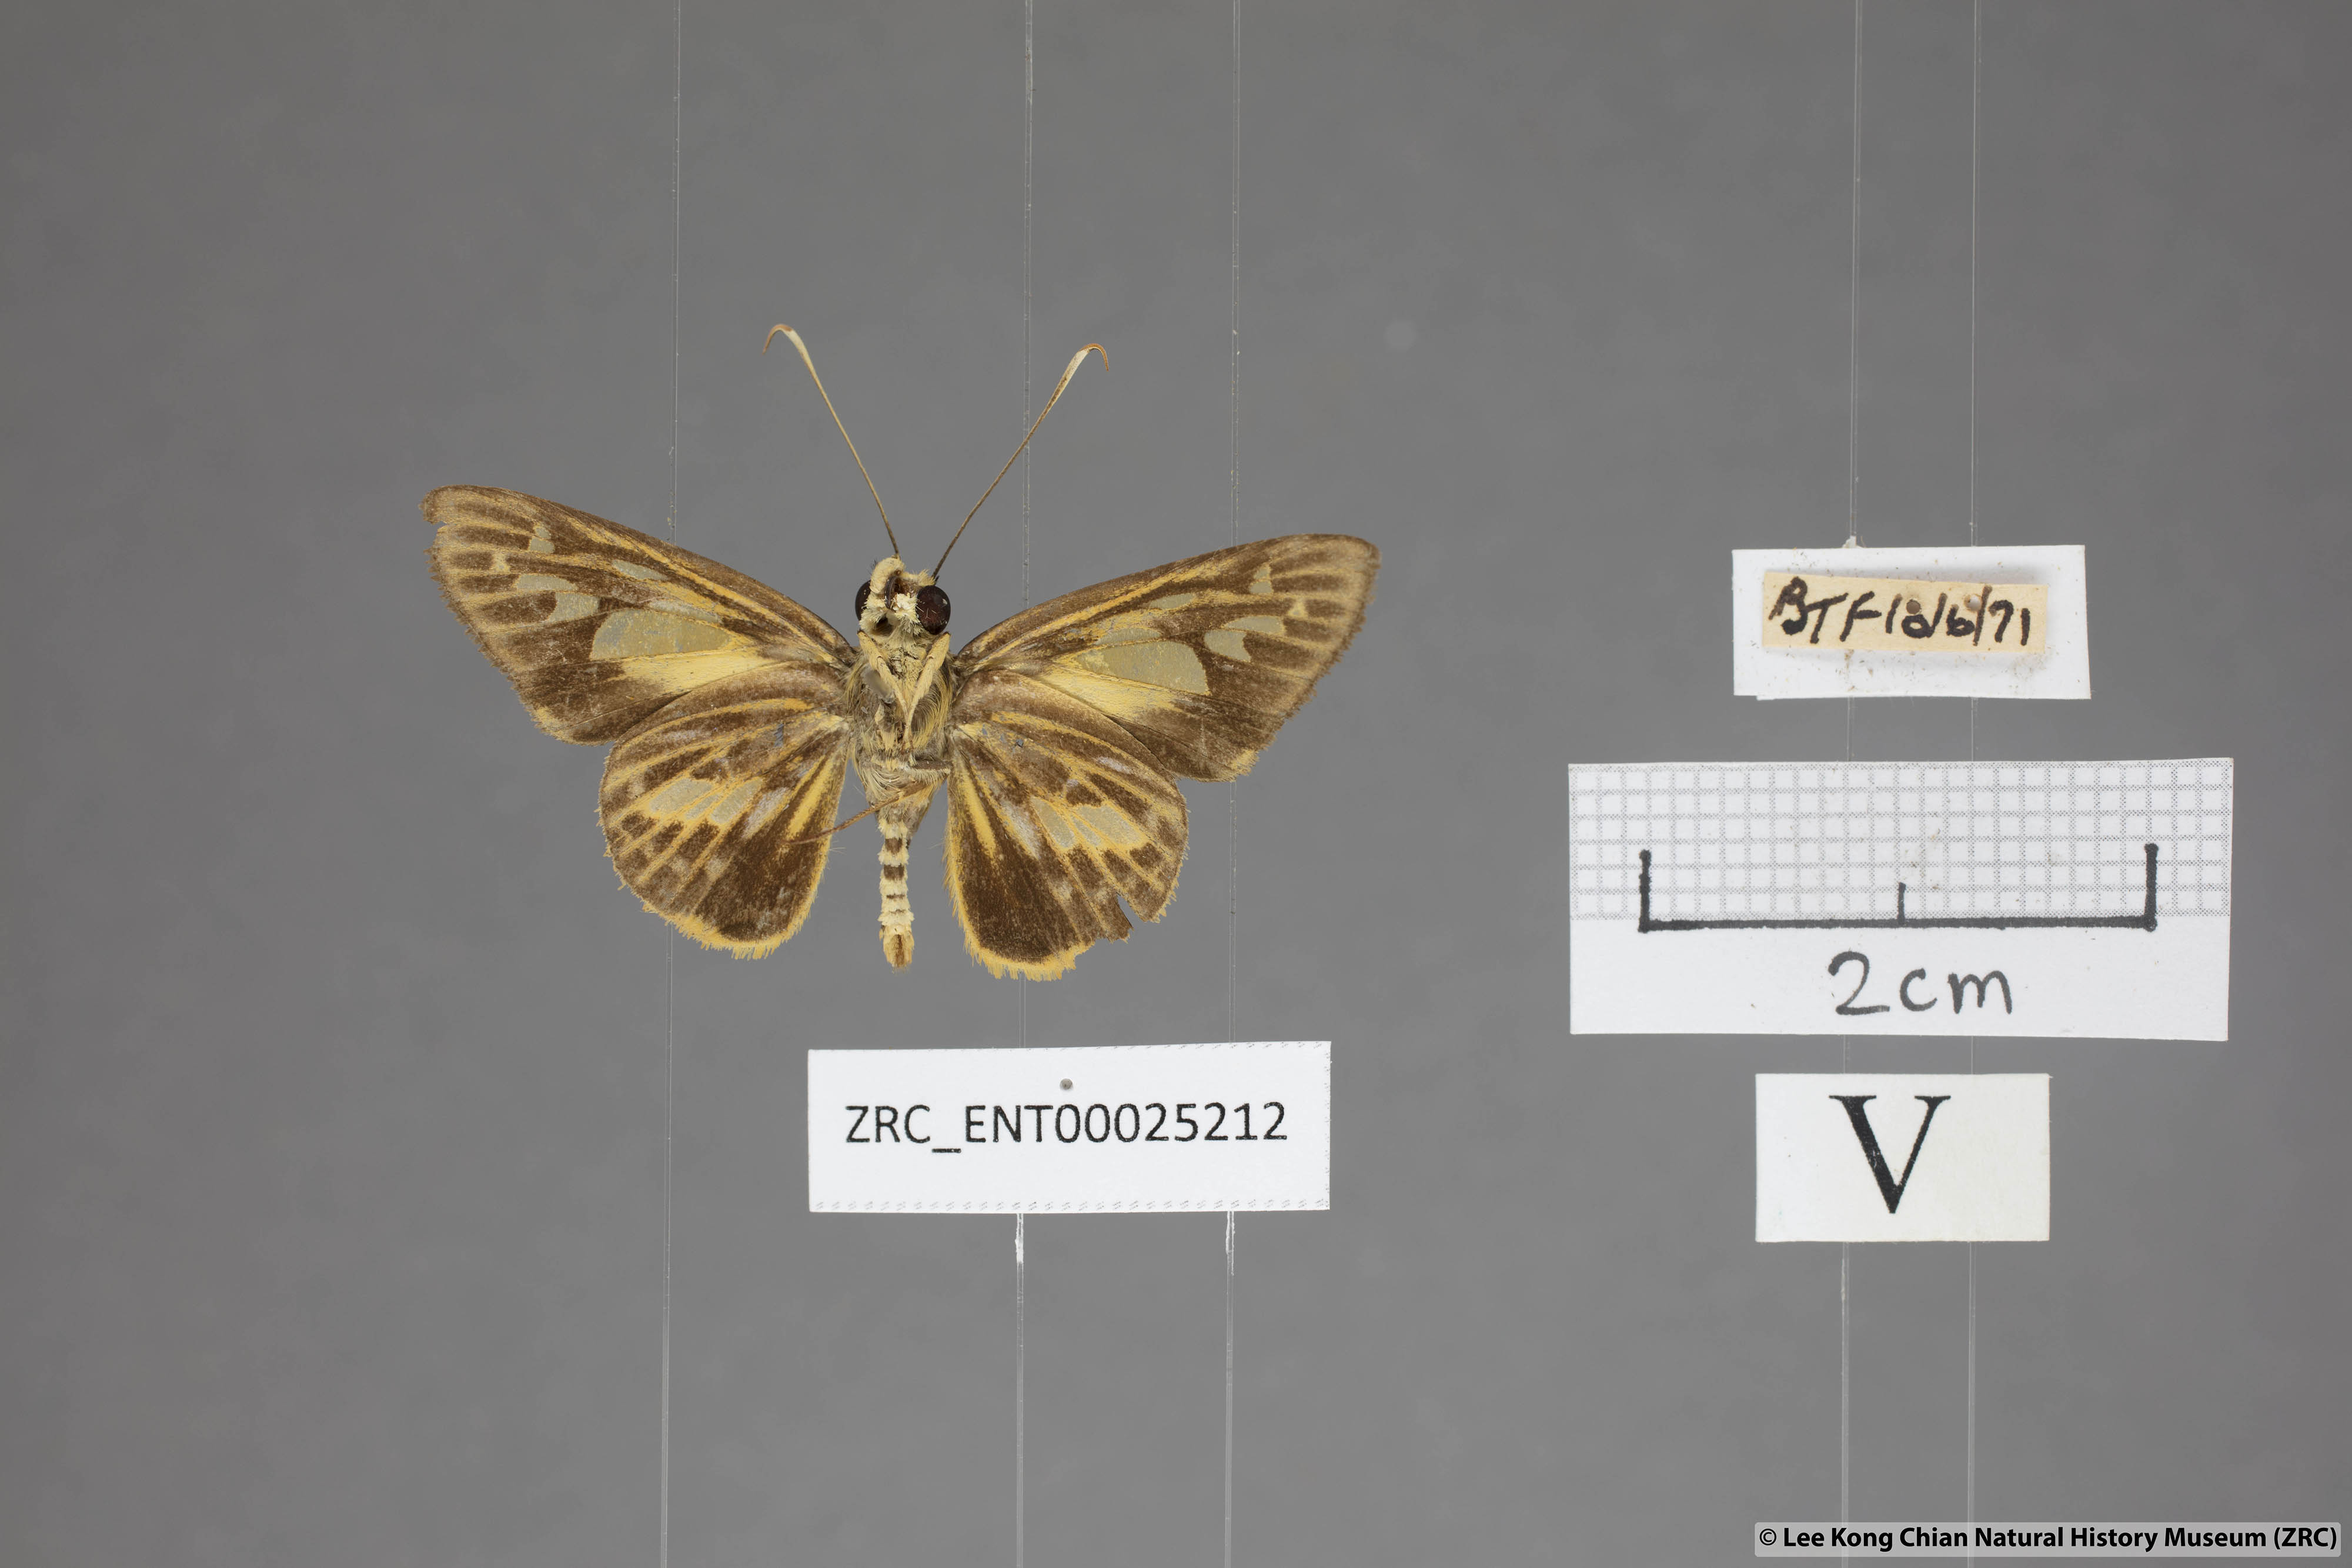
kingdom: Animalia
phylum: Arthropoda
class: Insecta
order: Lepidoptera
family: Hesperiidae
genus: Pyroneura
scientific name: Pyroneura derna
